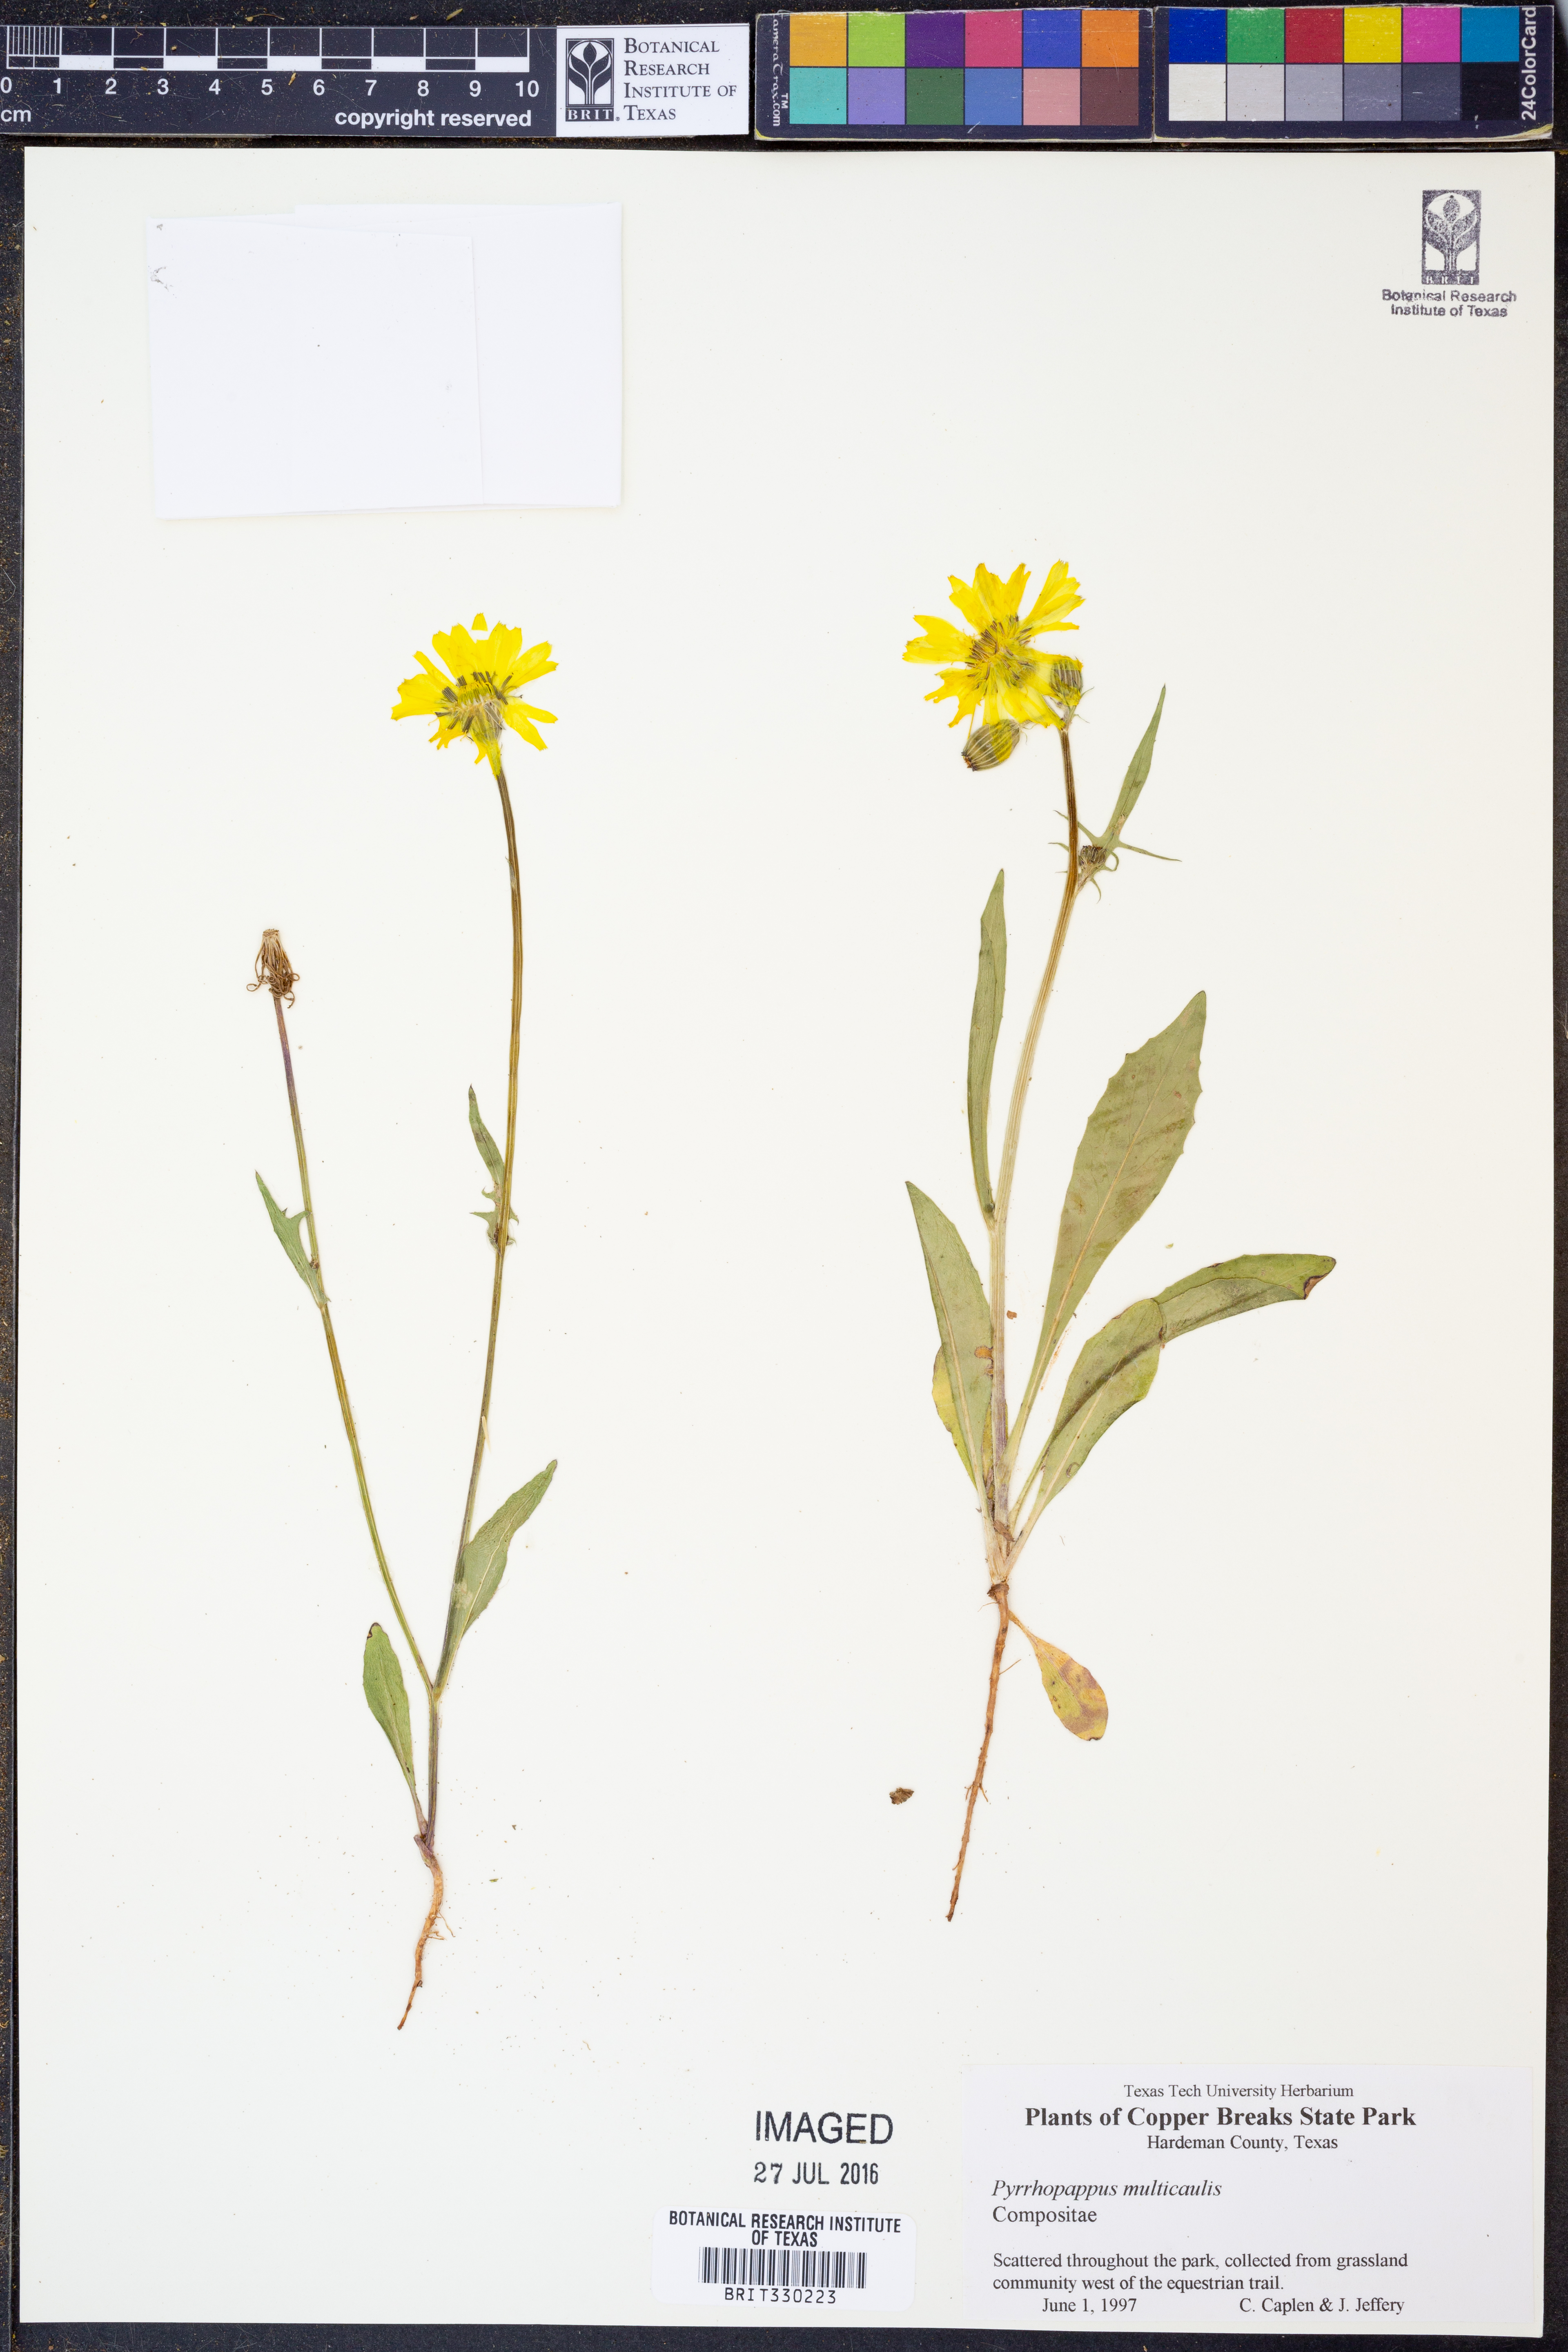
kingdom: Plantae
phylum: Tracheophyta
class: Magnoliopsida
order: Asterales
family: Asteraceae
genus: Pyrrhopappus
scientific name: Pyrrhopappus pauciflorus
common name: Texas false dandelion
